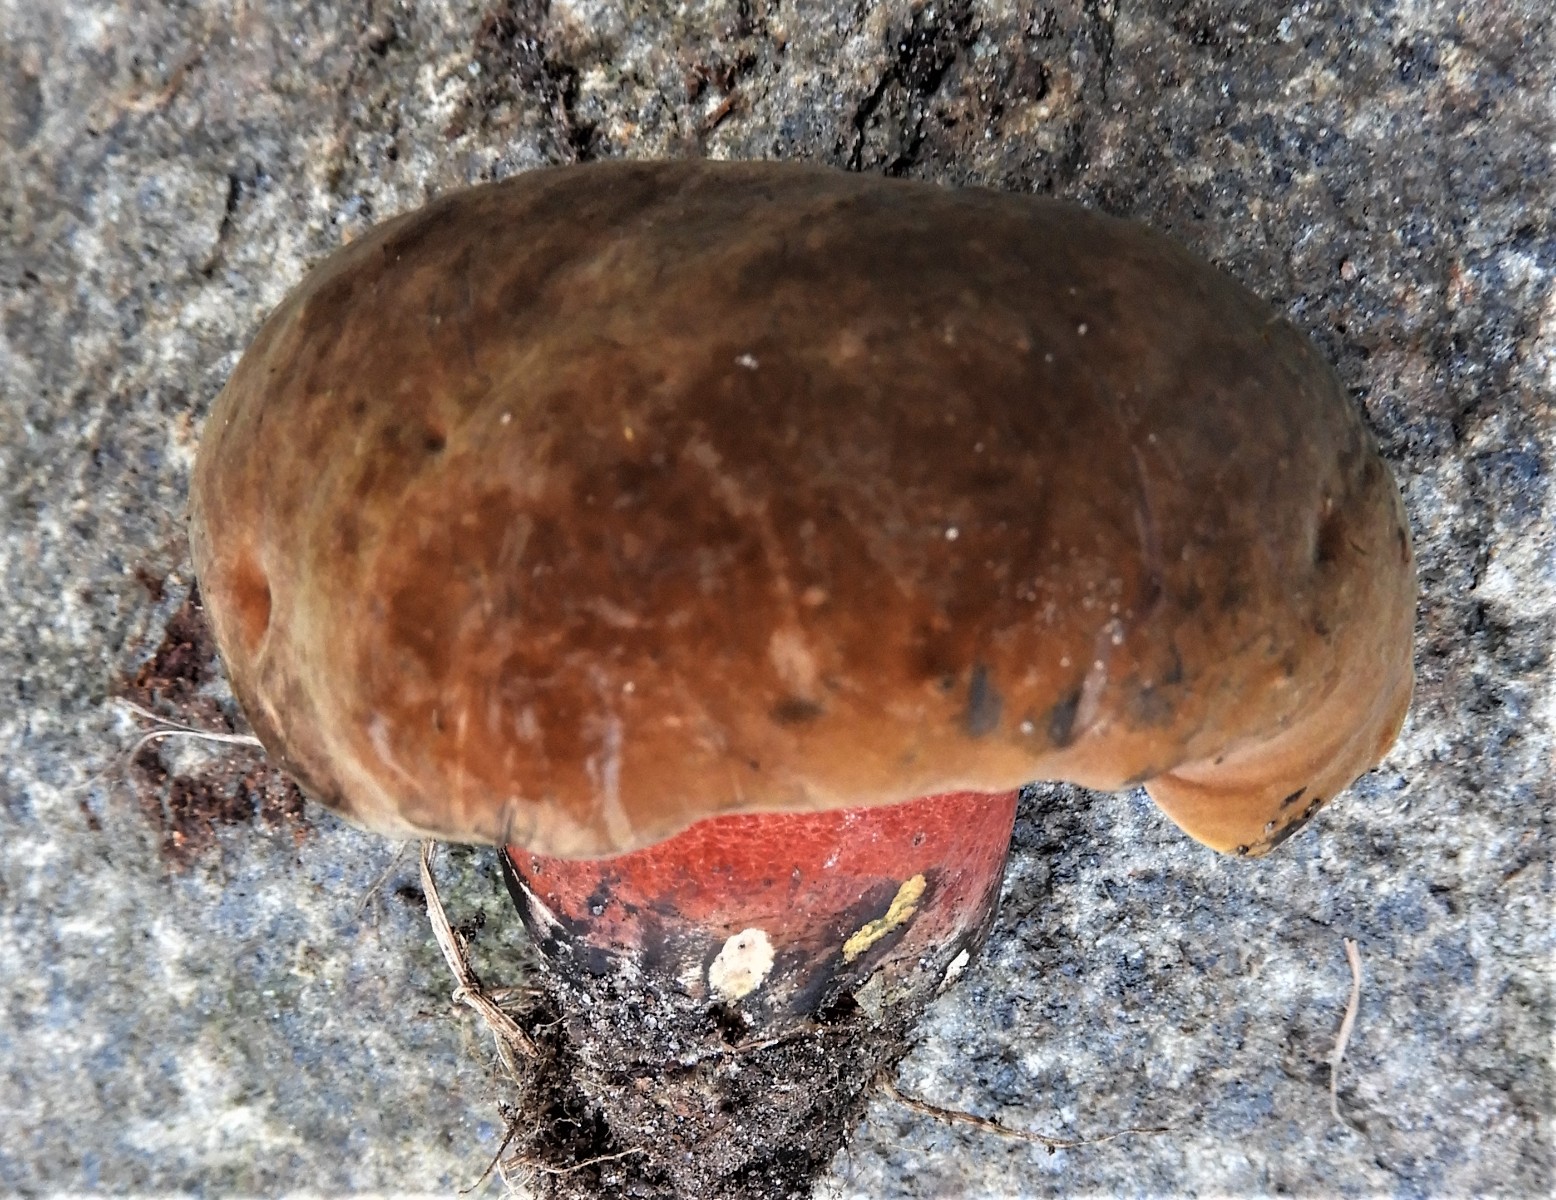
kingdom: Fungi
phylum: Basidiomycota
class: Agaricomycetes
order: Boletales
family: Boletaceae
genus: Neoboletus
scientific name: Neoboletus erythropus
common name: punktstokket indigorørhat
